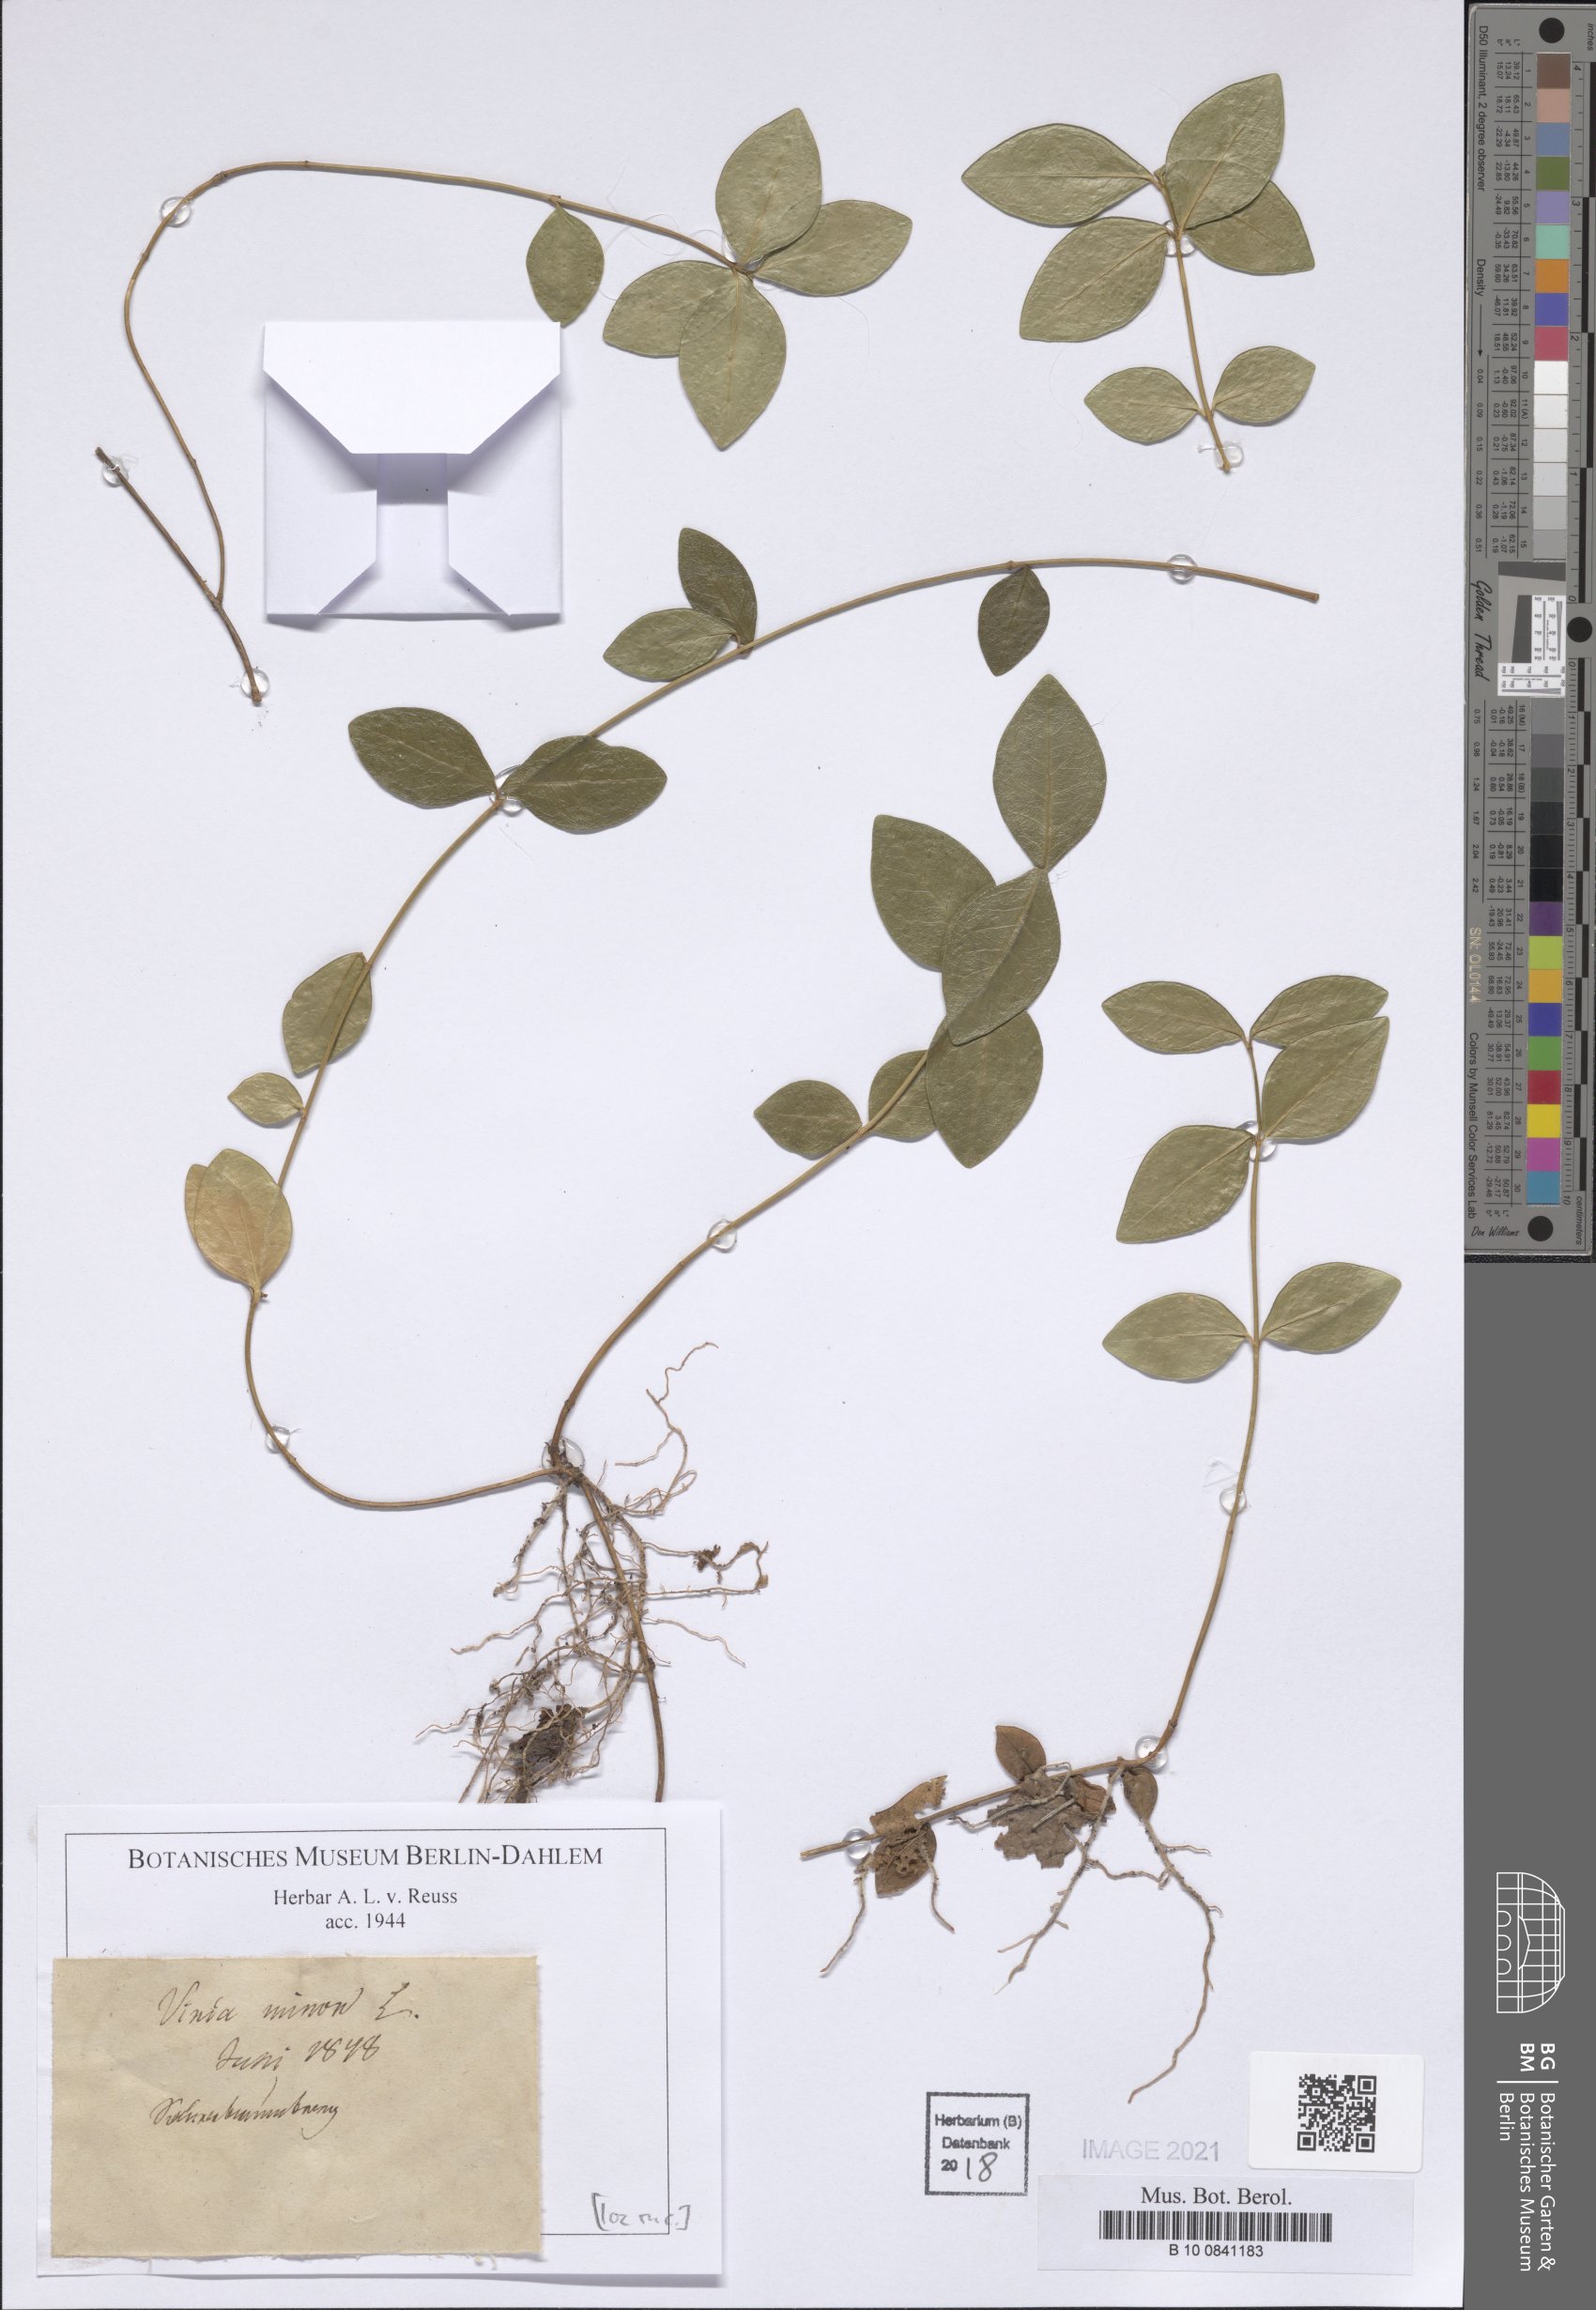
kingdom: Plantae
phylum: Tracheophyta
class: Magnoliopsida
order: Gentianales
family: Apocynaceae
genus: Vinca
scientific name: Vinca minor
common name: Lesser periwinkle
